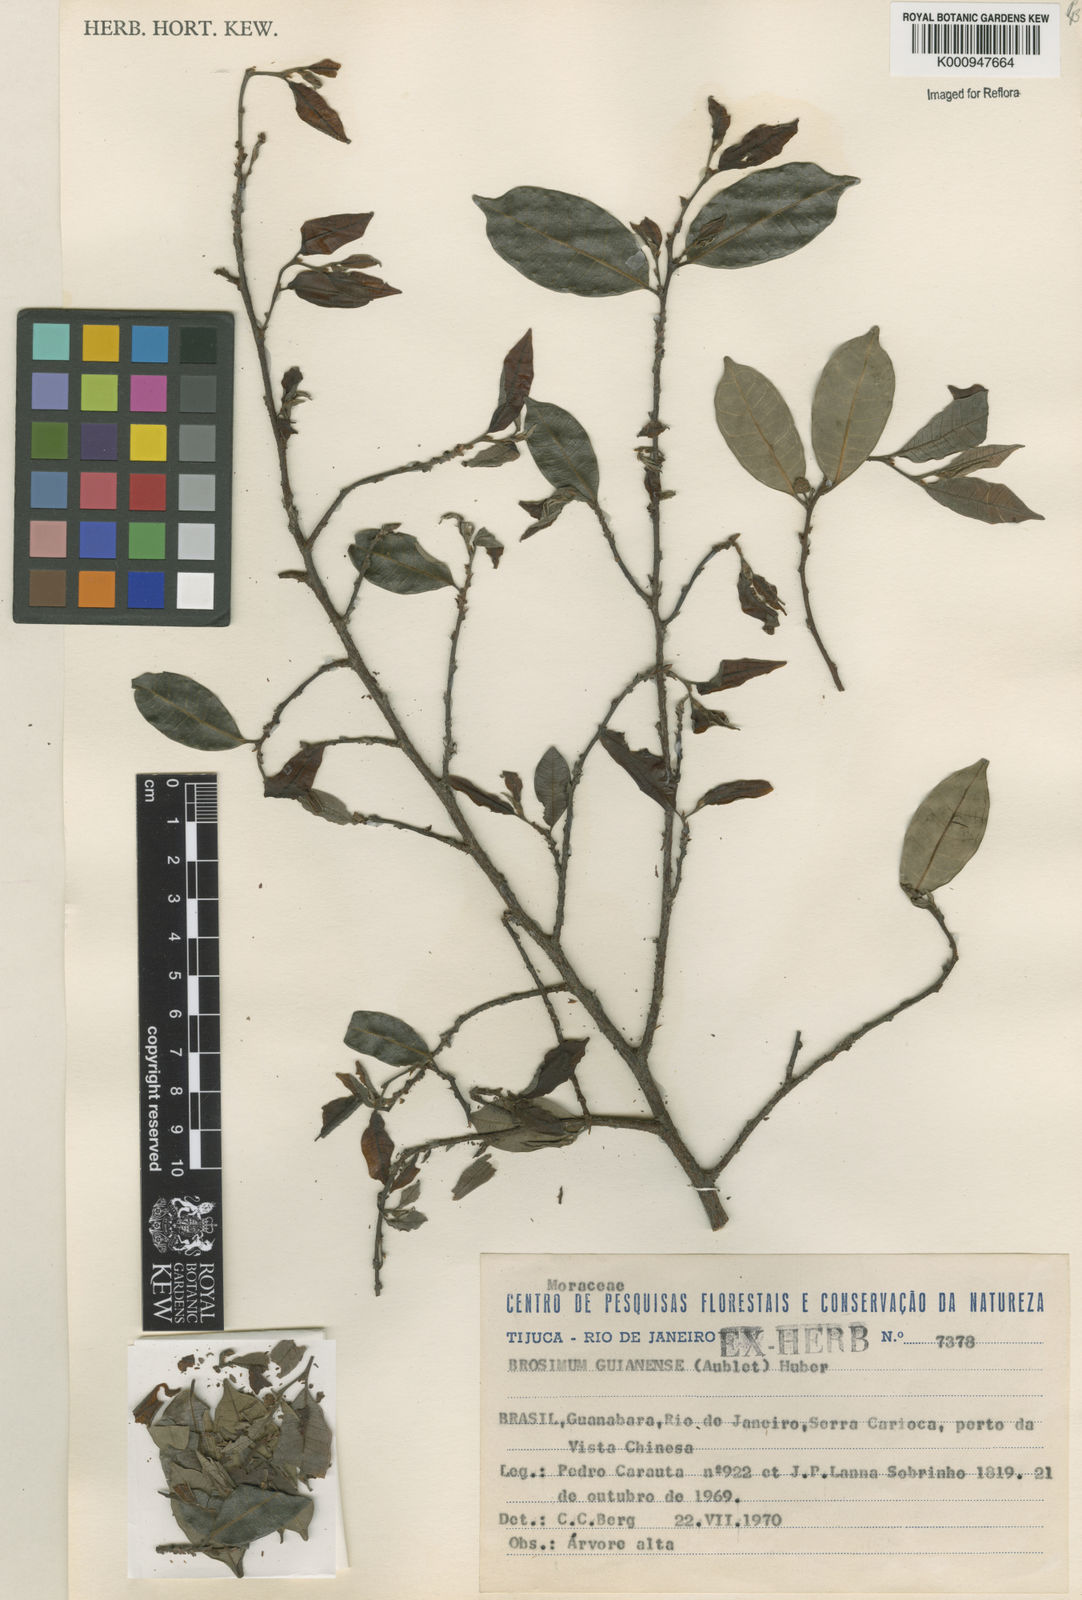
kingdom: Plantae
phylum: Tracheophyta
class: Magnoliopsida
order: Rosales
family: Moraceae
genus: Brosimum
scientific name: Brosimum
